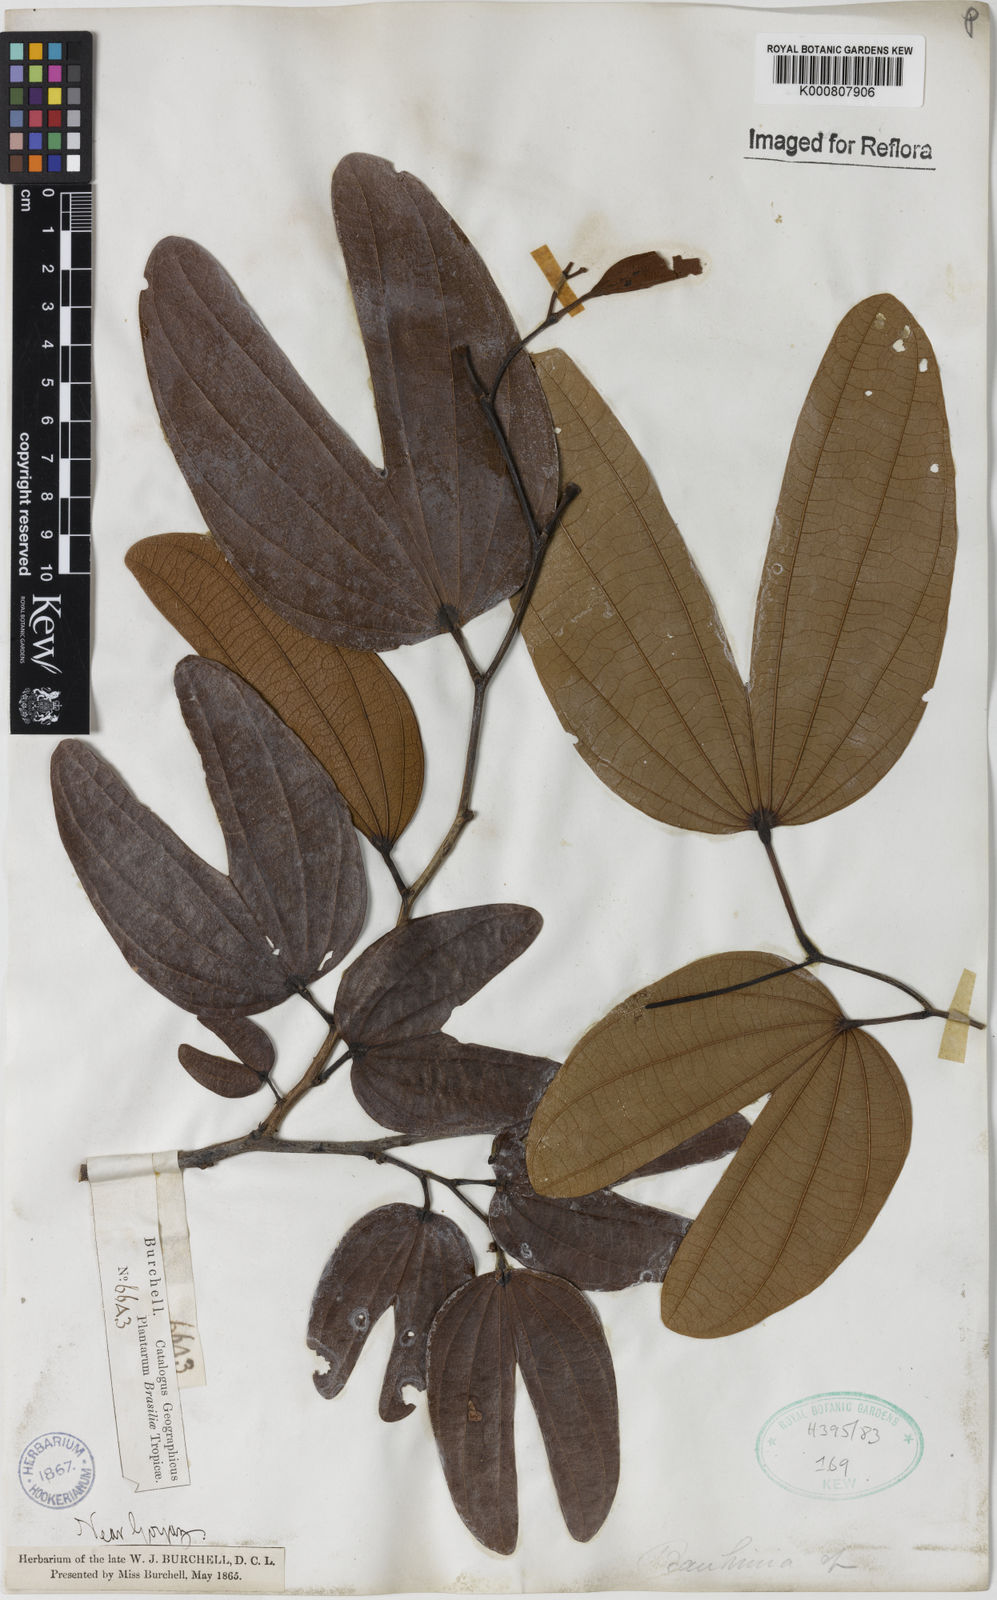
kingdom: Plantae
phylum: Tracheophyta
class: Magnoliopsida
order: Fabales
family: Fabaceae
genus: Bauhinia
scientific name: Bauhinia
